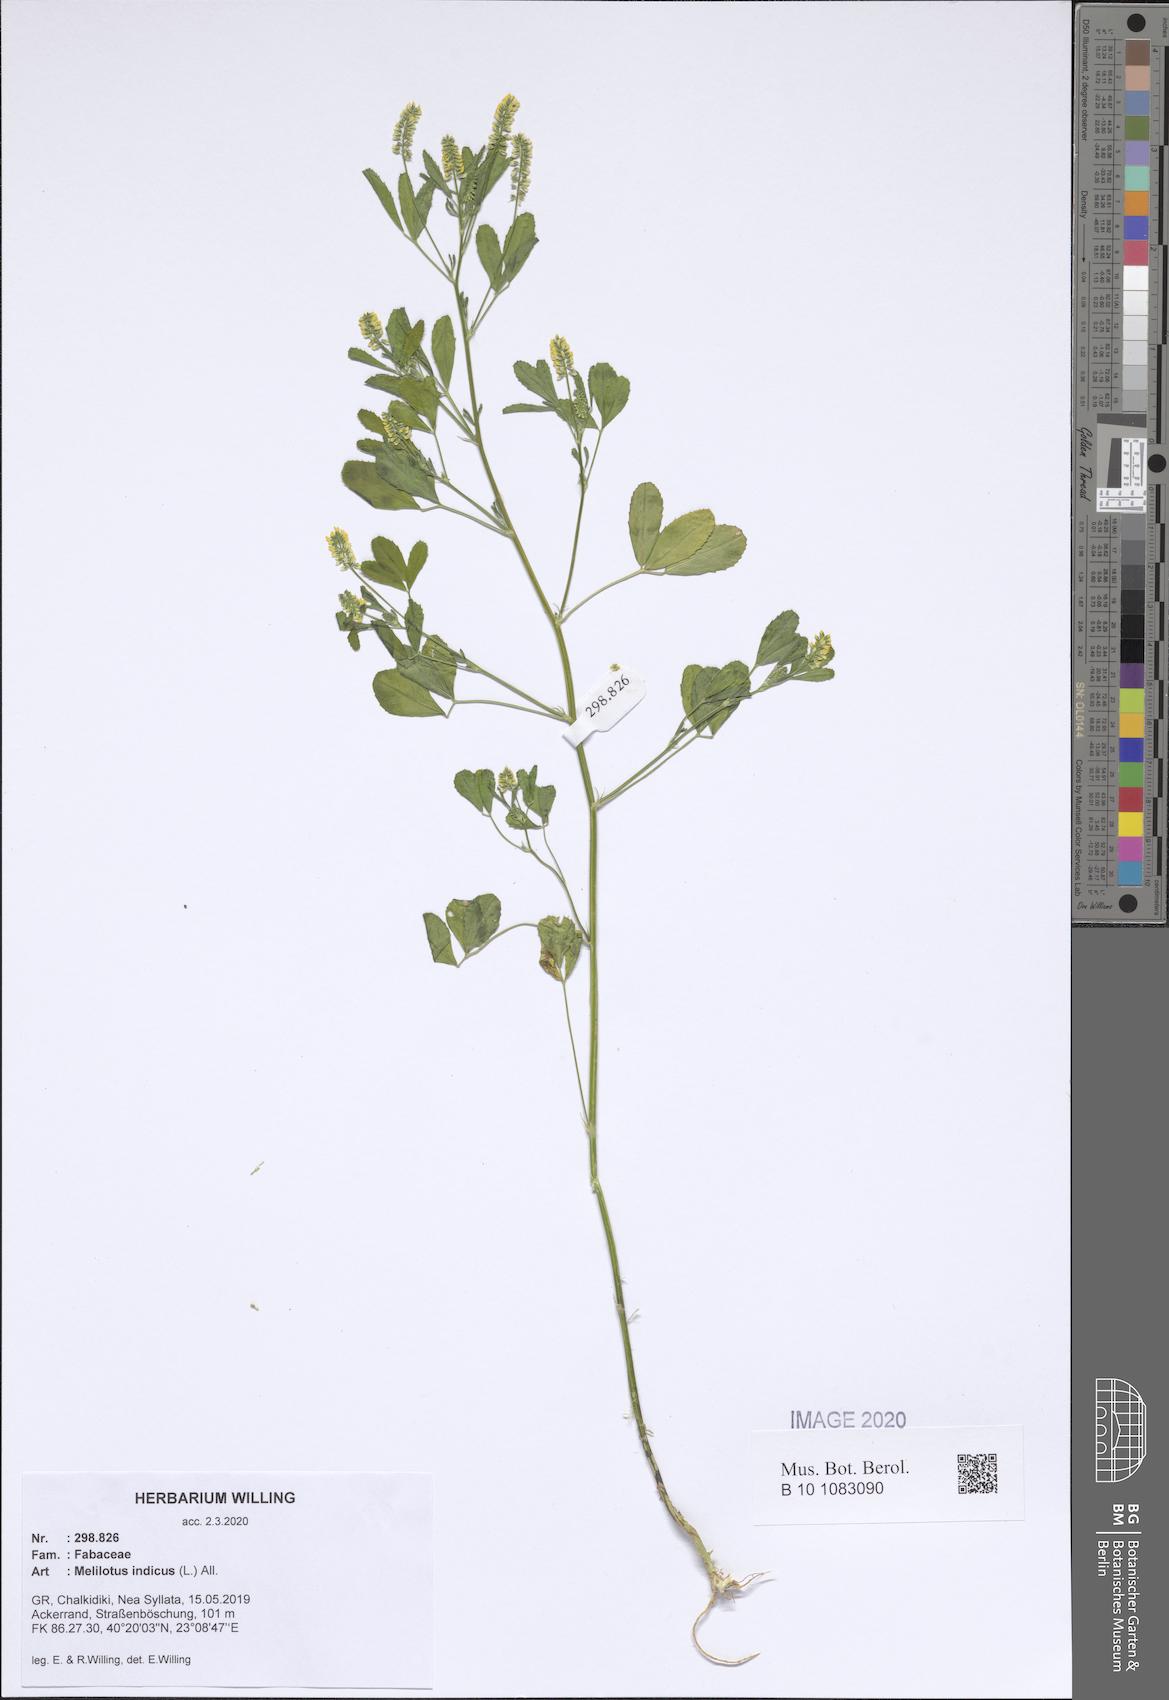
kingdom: Plantae
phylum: Tracheophyta
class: Magnoliopsida
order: Fabales
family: Fabaceae
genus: Melilotus
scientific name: Melilotus indicus
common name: Small melilot
